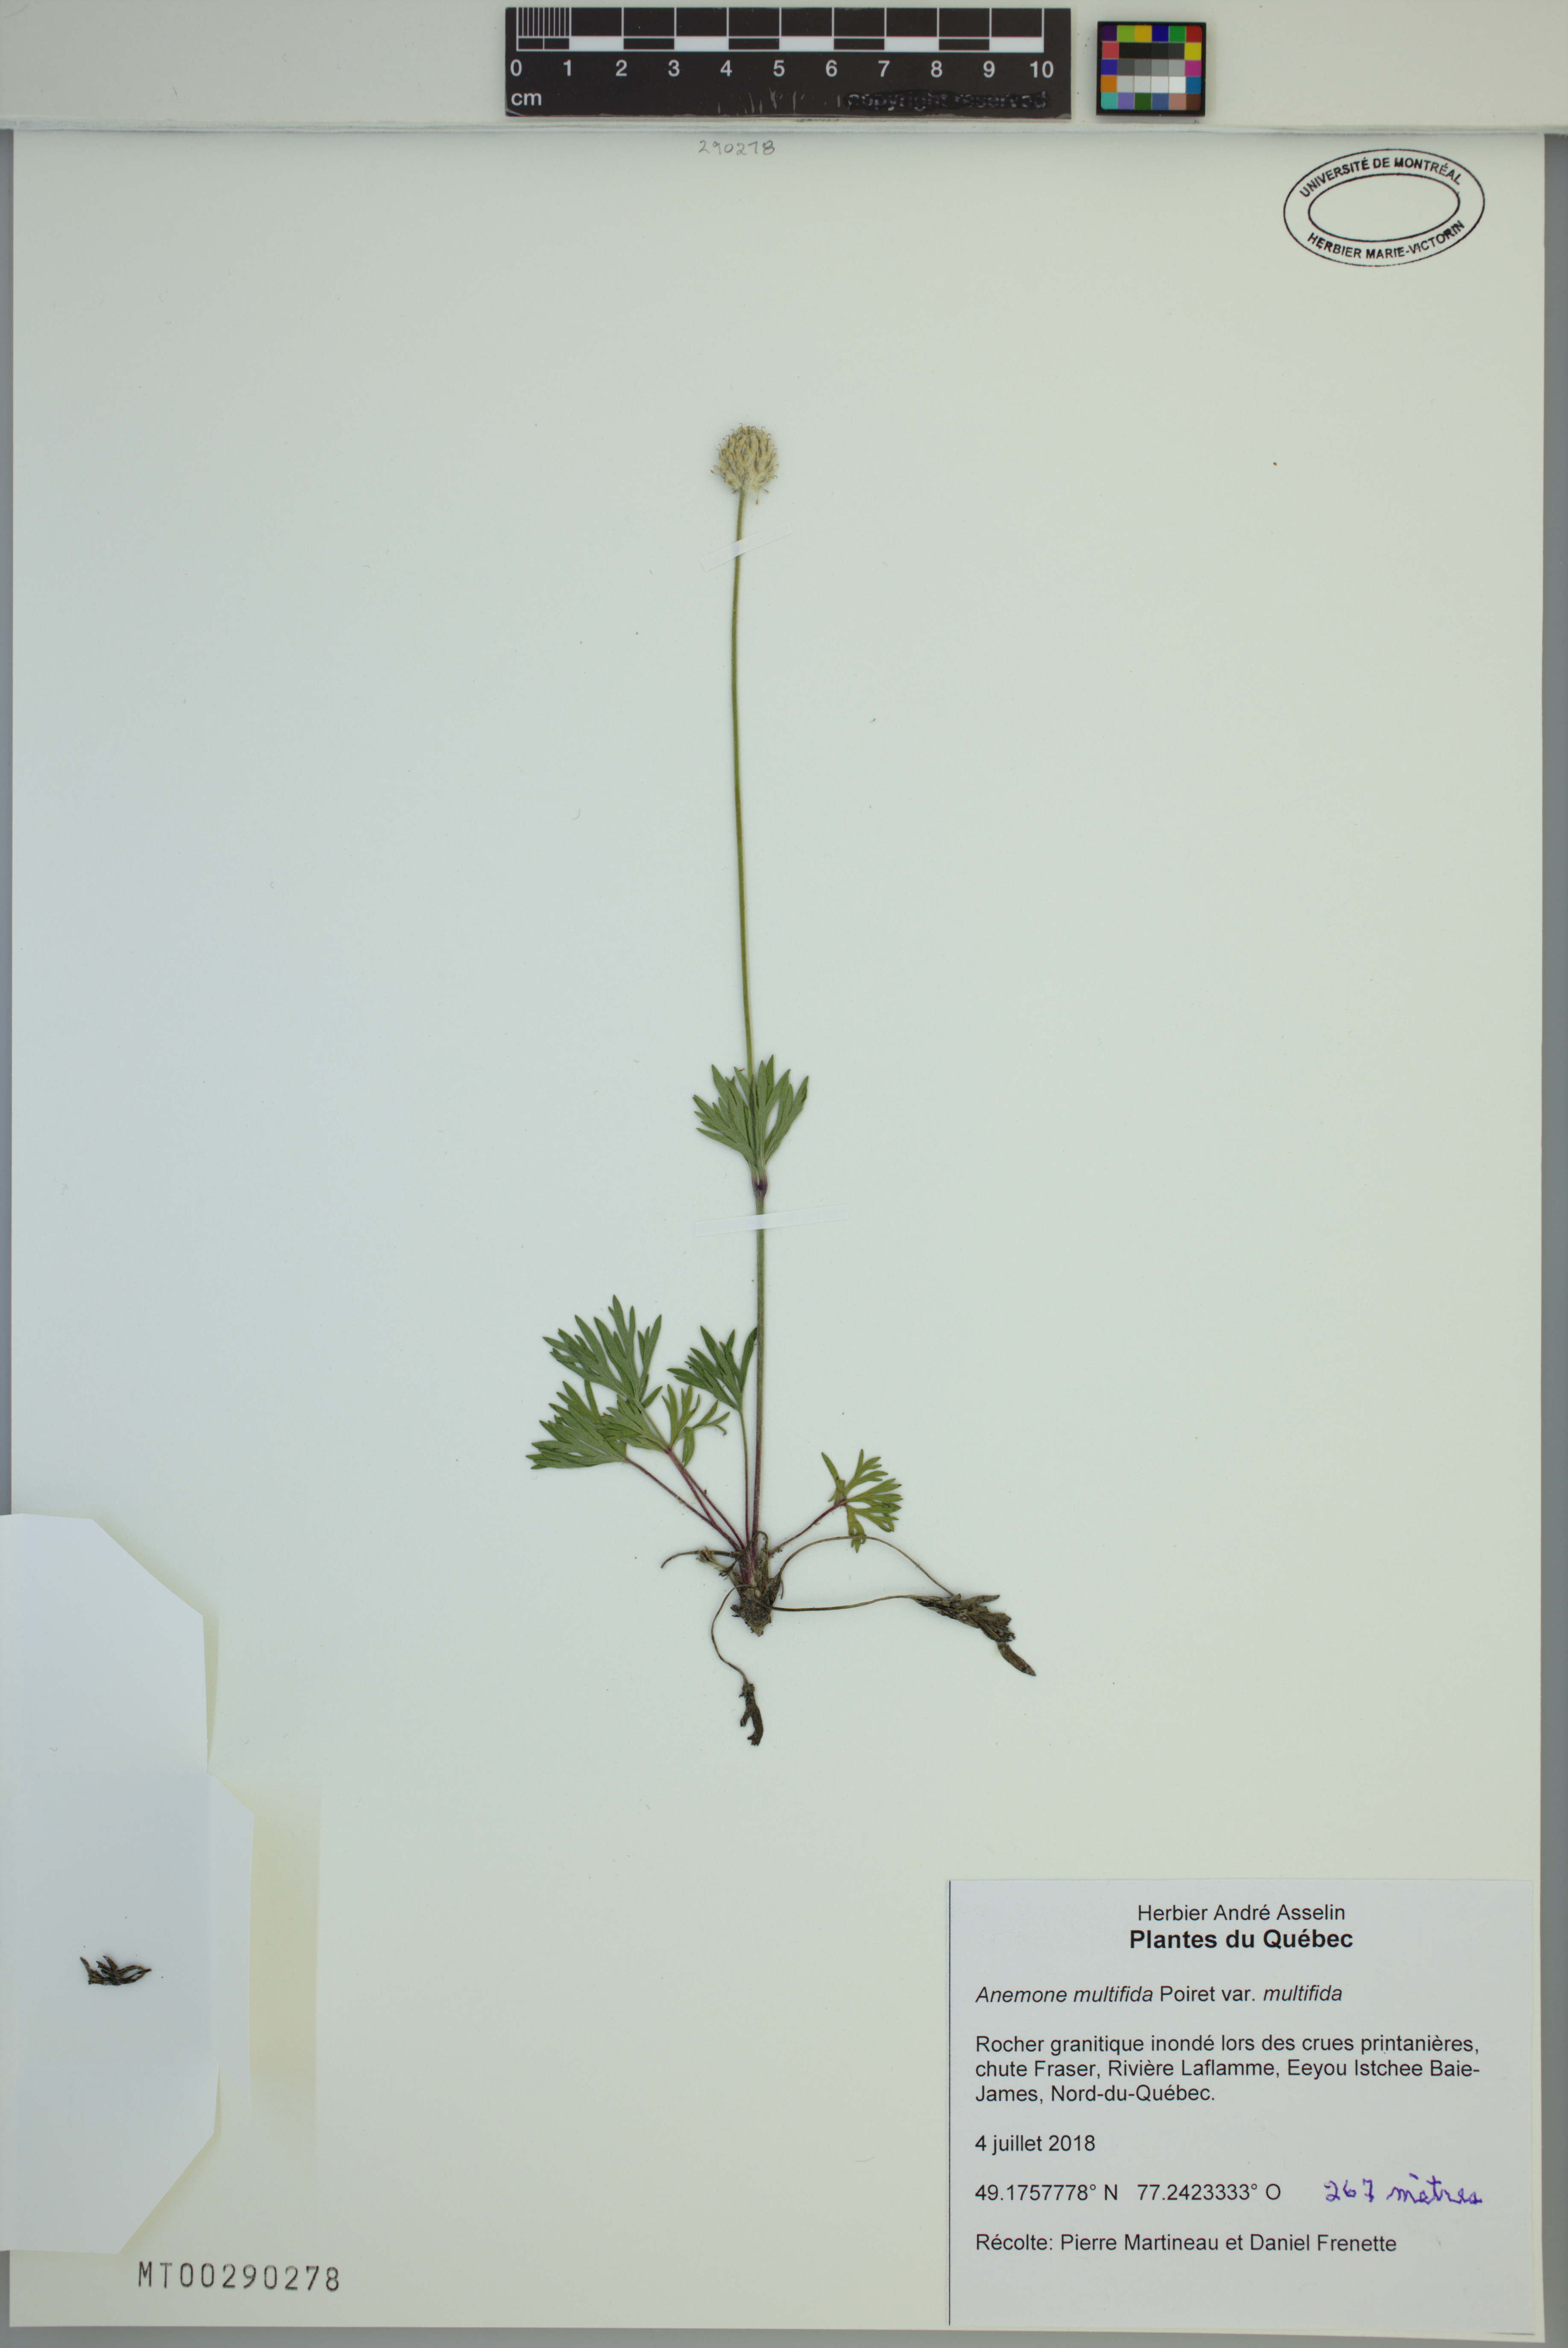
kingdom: Plantae
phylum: Tracheophyta
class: Magnoliopsida
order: Ranunculales
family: Ranunculaceae
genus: Anemone
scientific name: Anemone multifida
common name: Bird's-foot anemone
